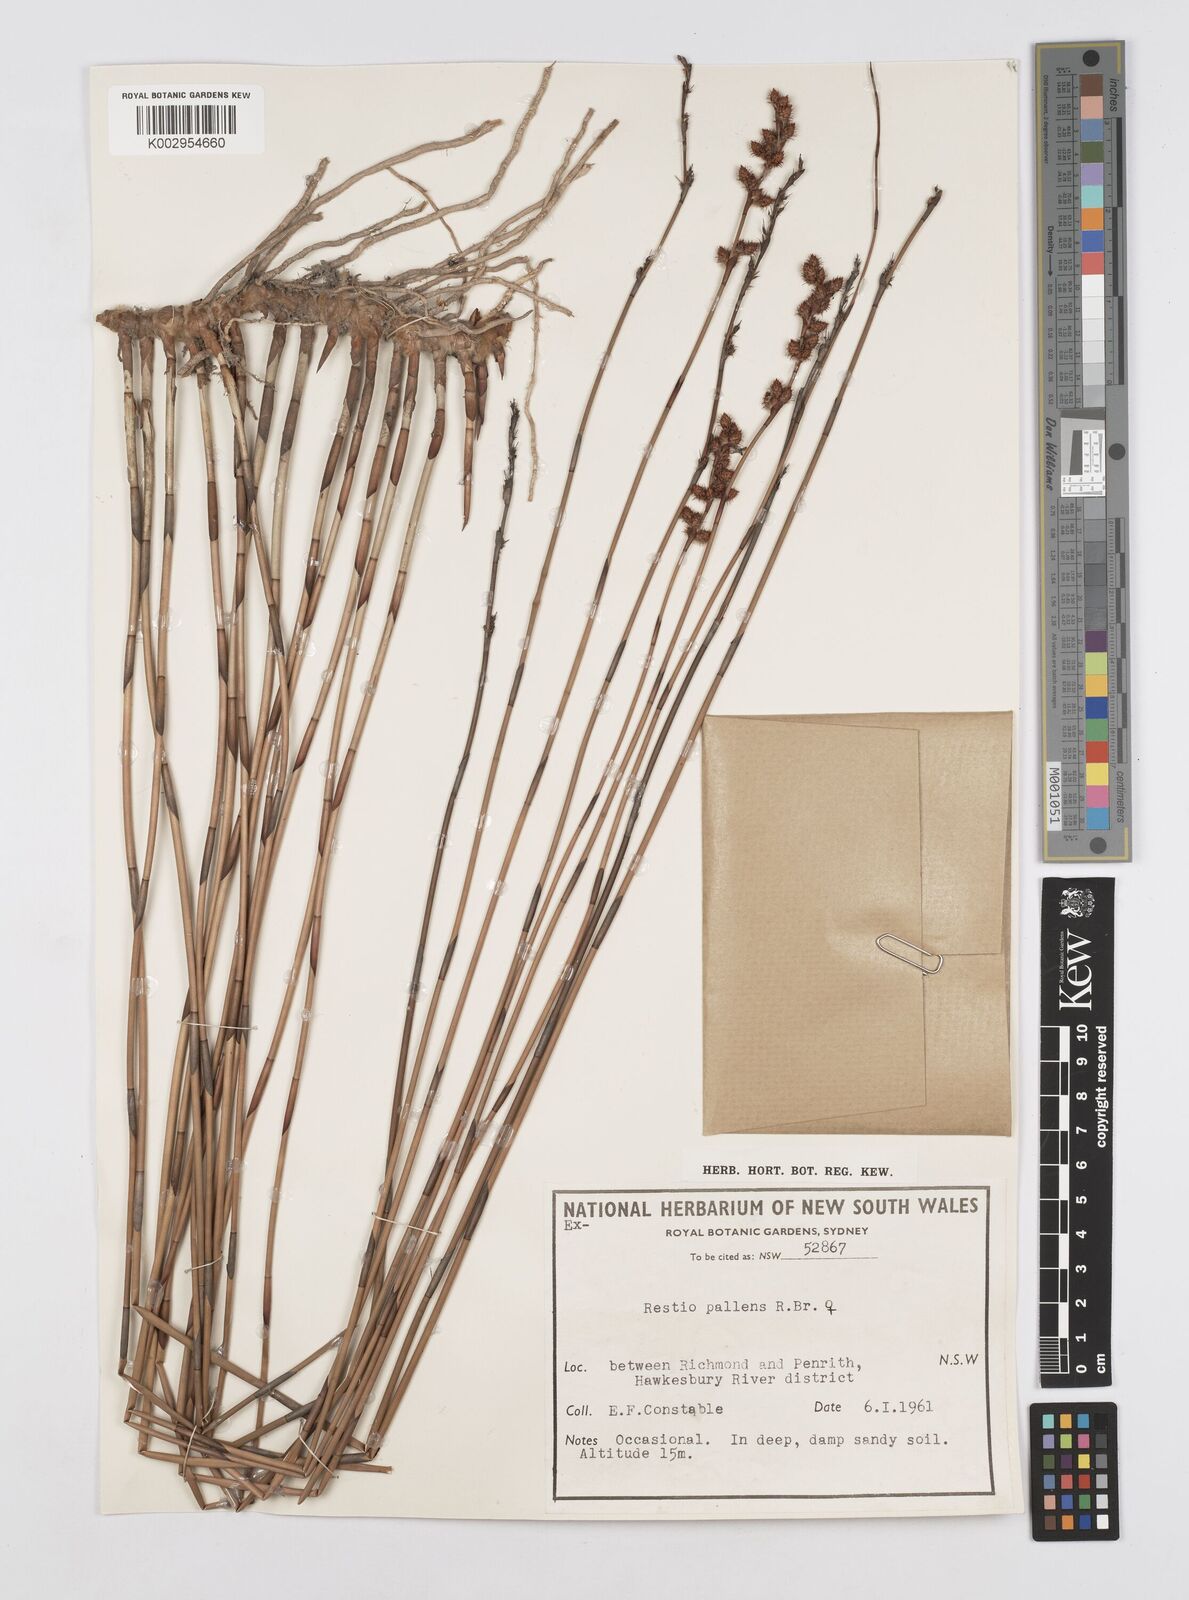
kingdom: Plantae
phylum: Tracheophyta
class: Liliopsida
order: Poales
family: Restionaceae
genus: Baloskion
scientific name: Baloskion pallens
